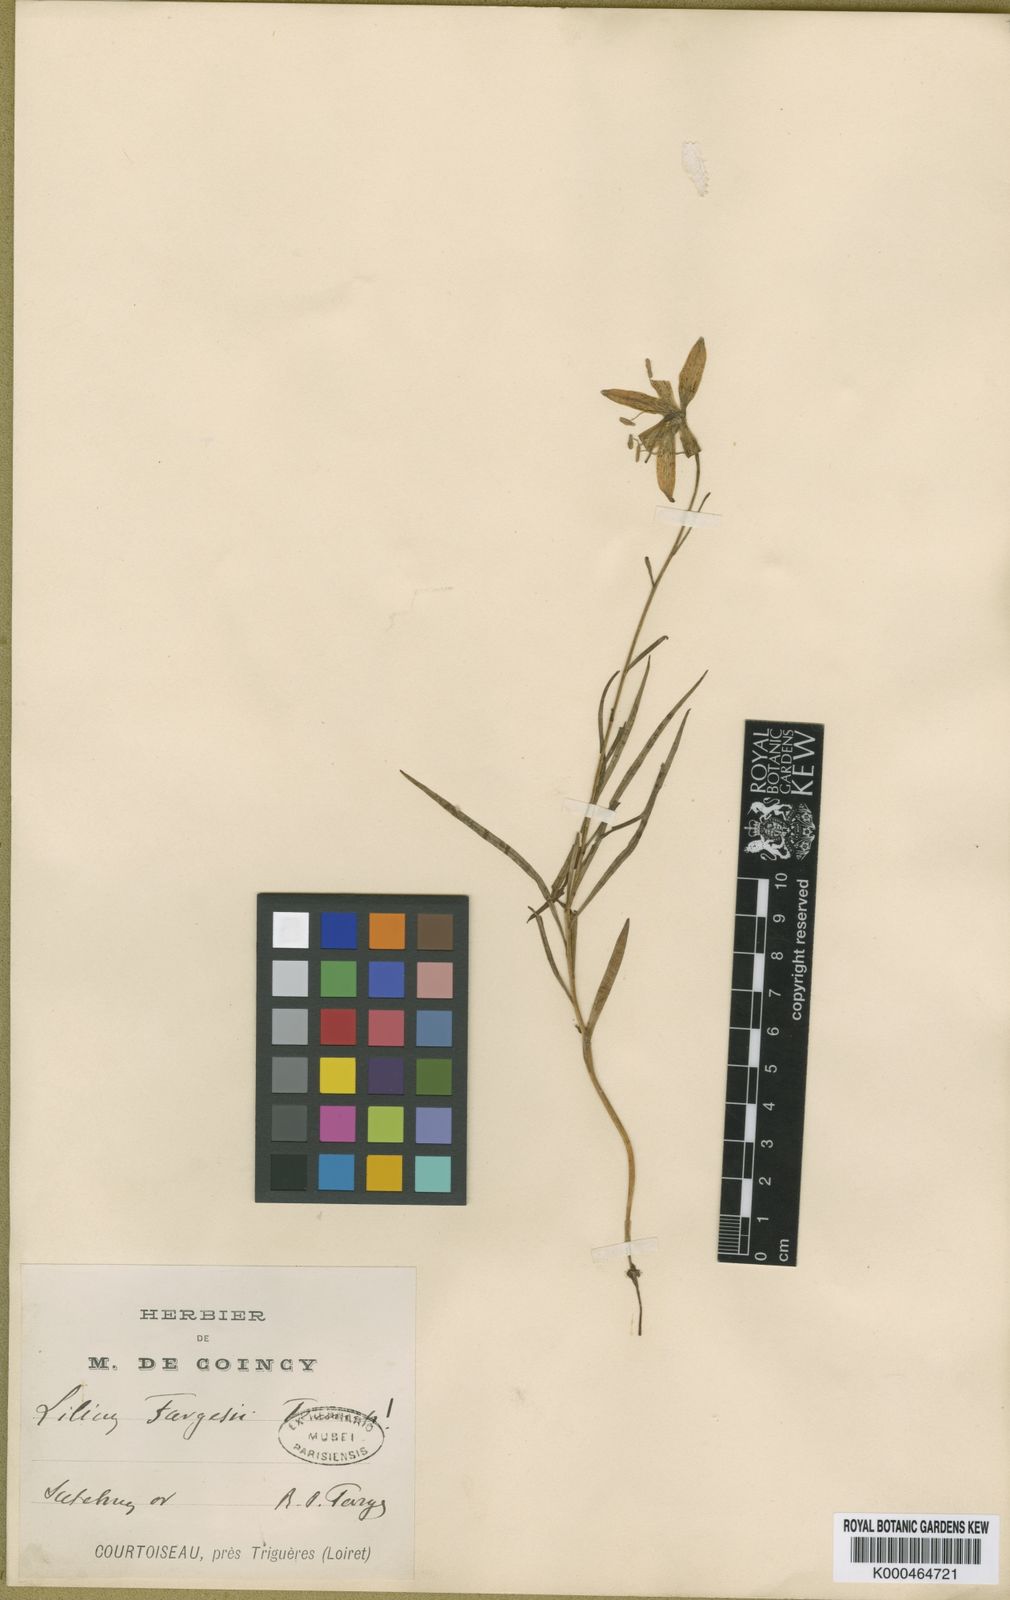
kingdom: Plantae
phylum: Tracheophyta
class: Liliopsida
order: Liliales
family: Liliaceae
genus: Lilium
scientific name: Lilium fargesii
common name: Farges's lily
